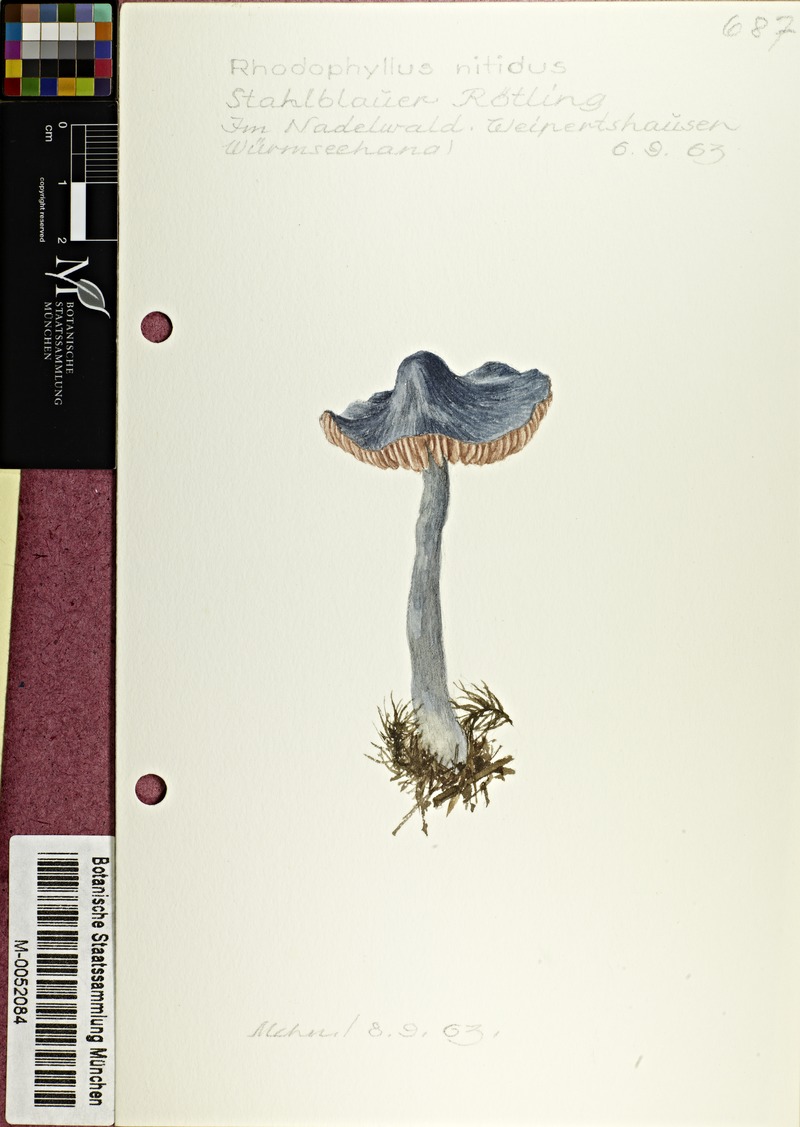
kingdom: Fungi
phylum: Basidiomycota
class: Agaricomycetes
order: Agaricales
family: Entolomataceae
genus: Entocybe
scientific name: Entocybe nitida
